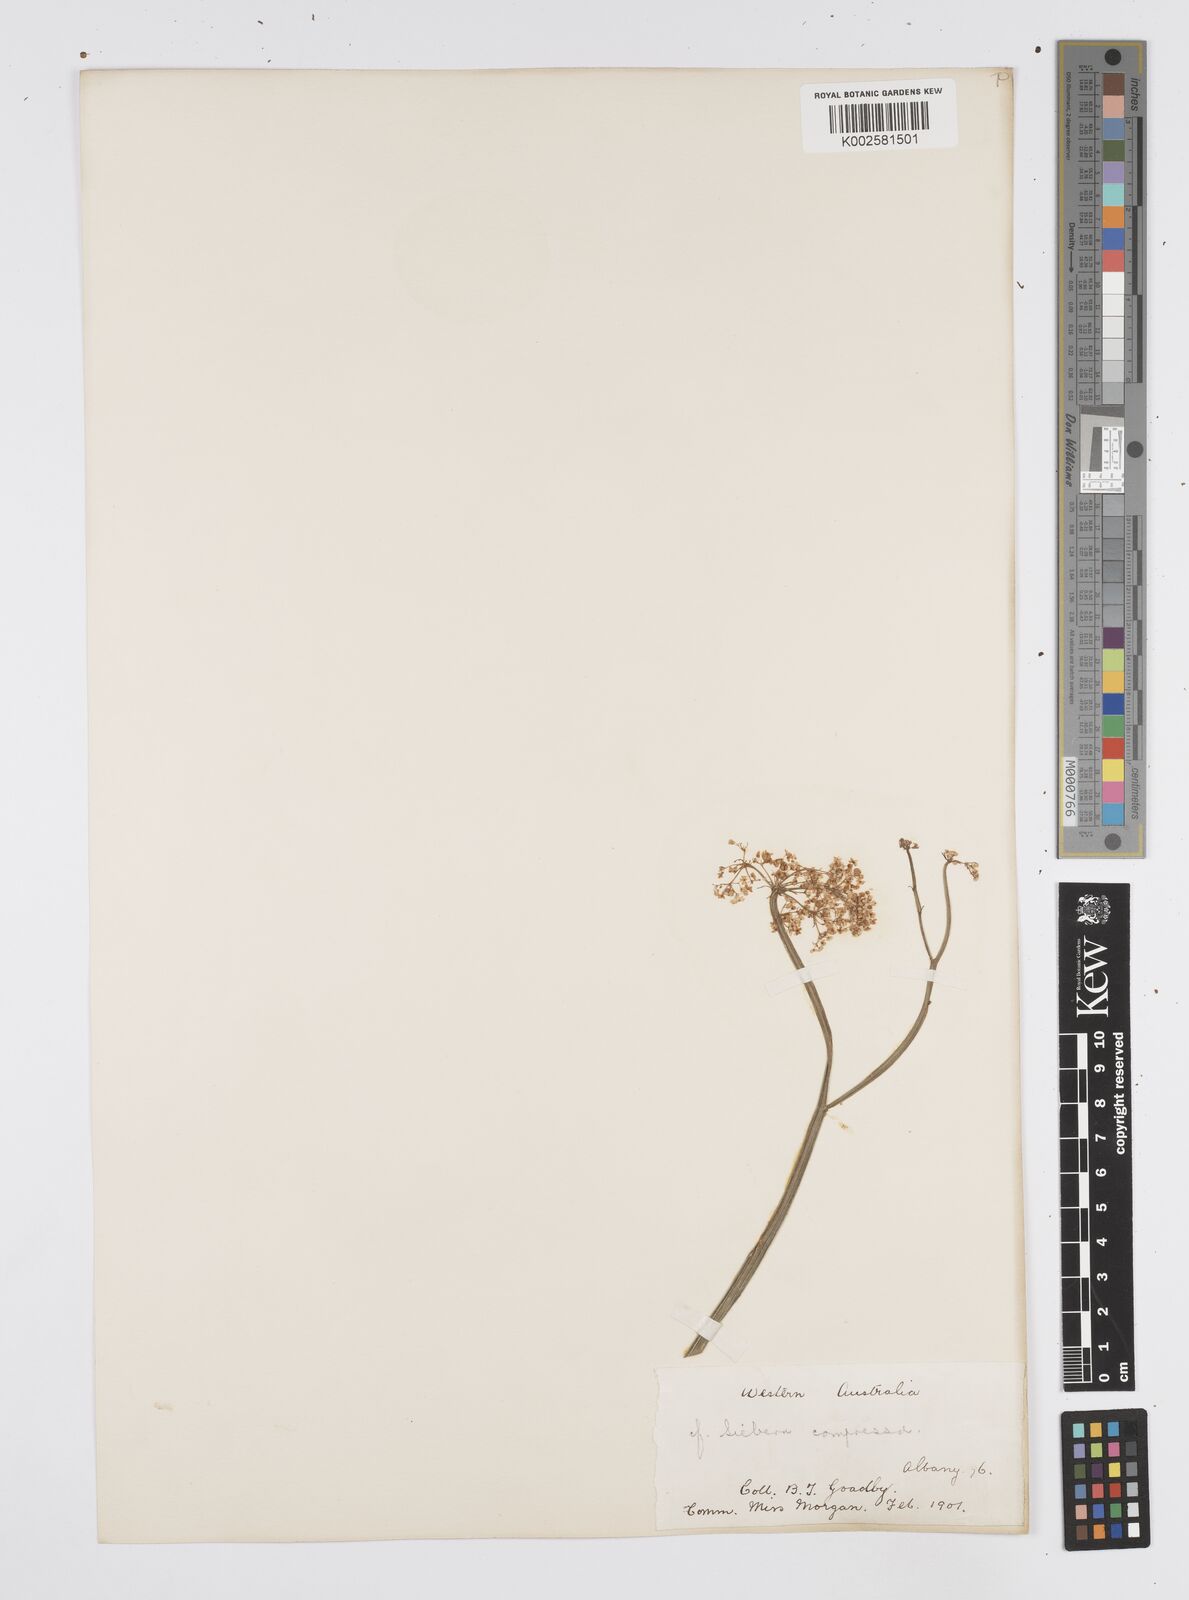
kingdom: Plantae
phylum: Tracheophyta
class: Magnoliopsida
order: Apiales
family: Apiaceae
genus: Centella
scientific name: Centella
